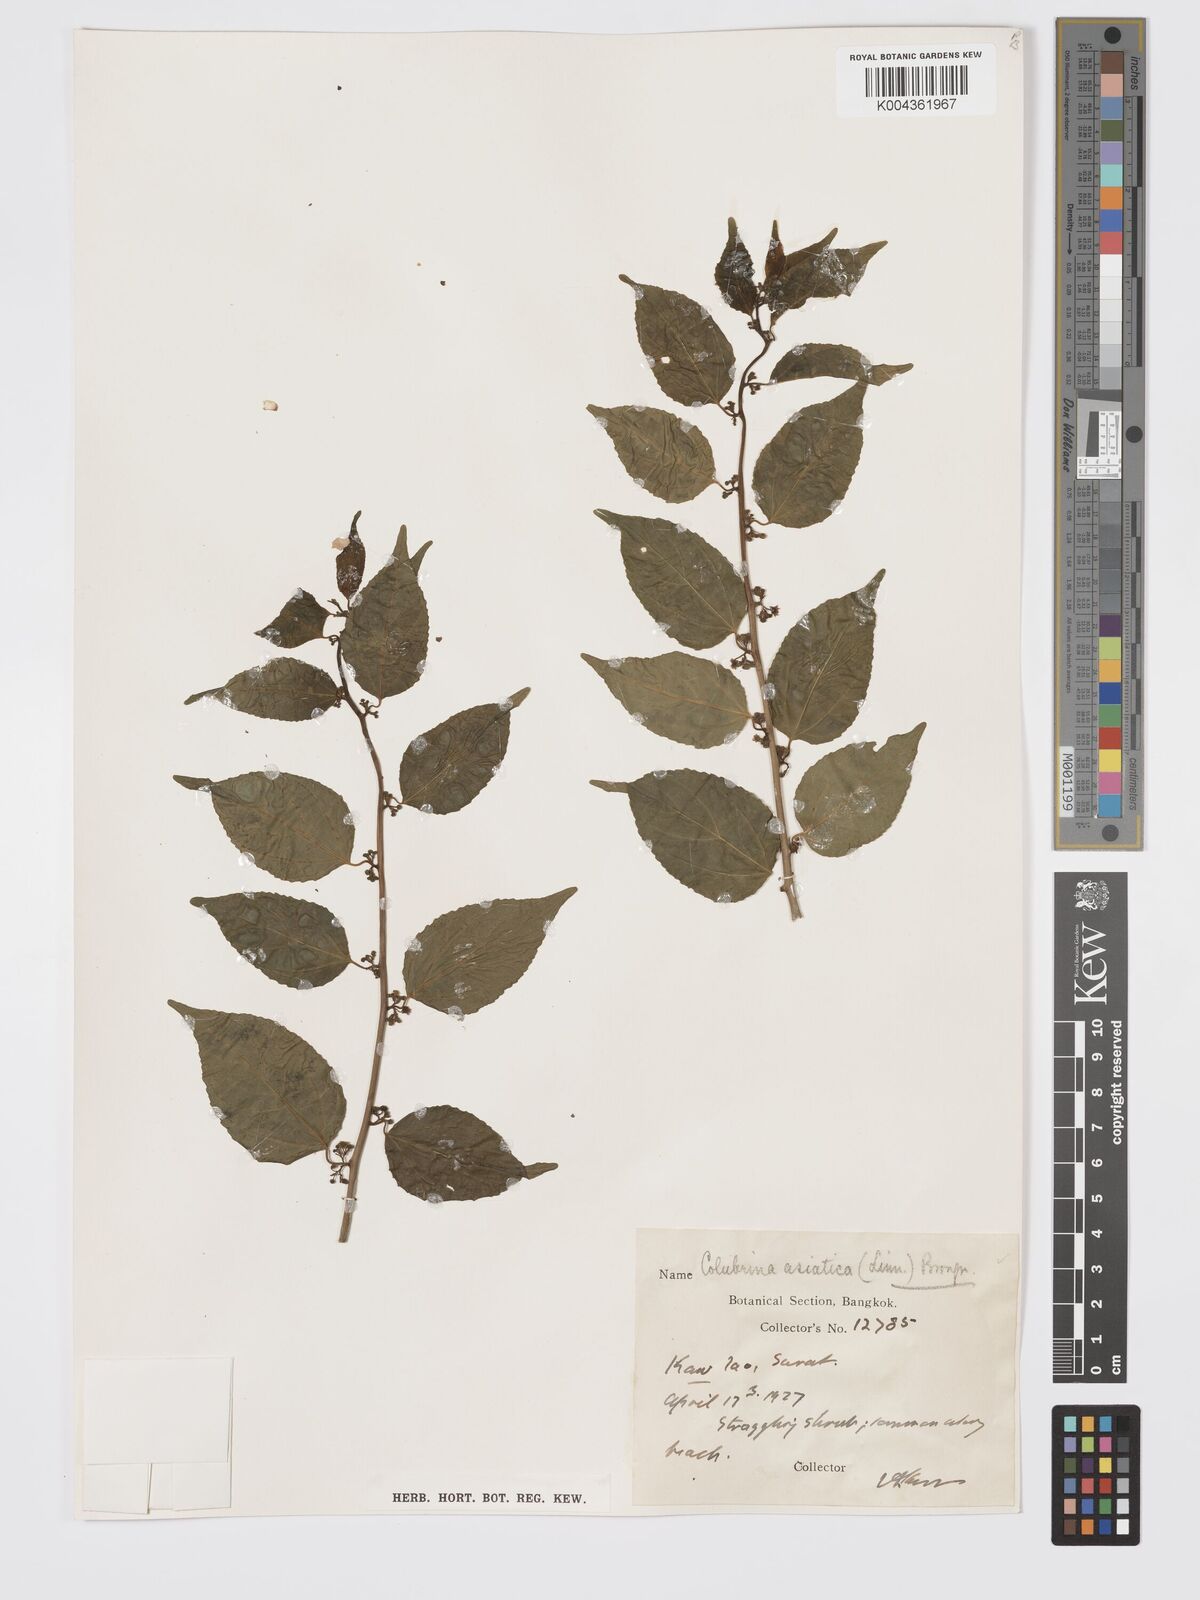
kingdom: Plantae
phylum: Tracheophyta
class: Magnoliopsida
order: Rosales
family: Rhamnaceae
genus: Colubrina
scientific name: Colubrina asiatica
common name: Asian nakedwood
